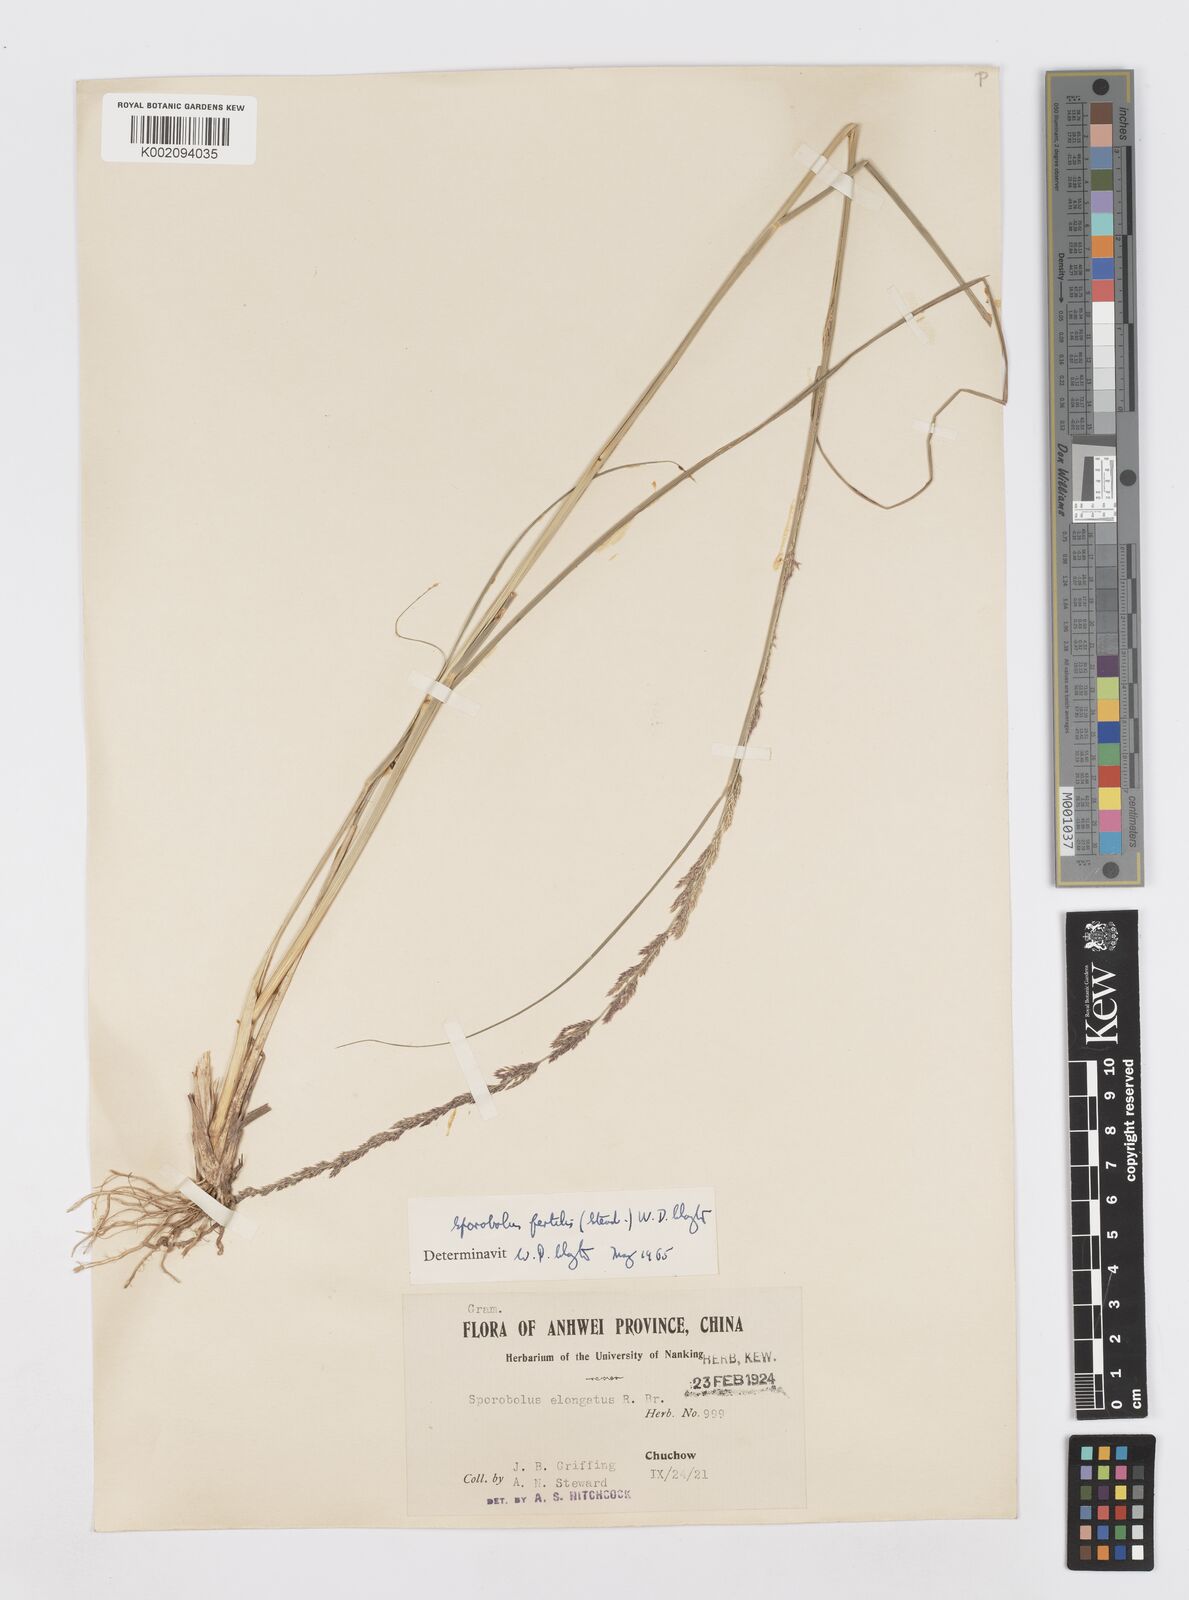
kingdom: Plantae
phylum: Tracheophyta
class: Liliopsida
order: Poales
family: Poaceae
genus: Sporobolus
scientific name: Sporobolus fertilis
